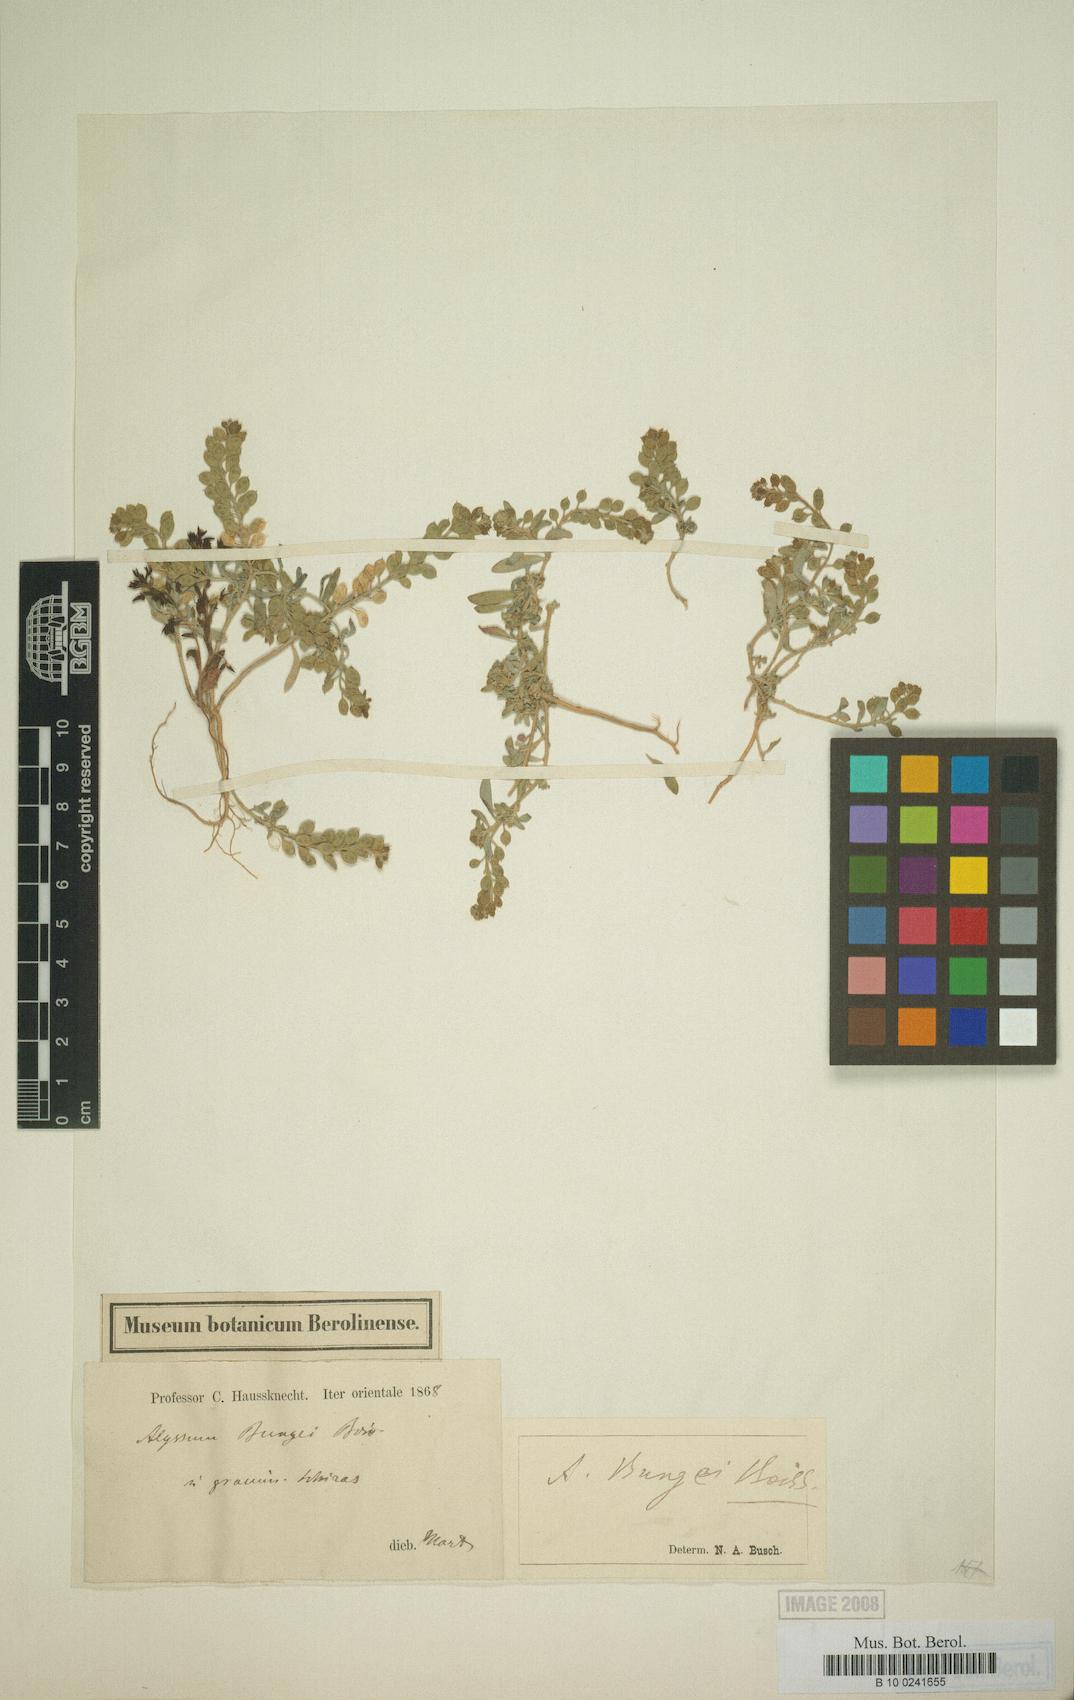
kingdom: Plantae
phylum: Tracheophyta
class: Magnoliopsida
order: Brassicales
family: Brassicaceae
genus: Meniocus
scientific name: Meniocus heterotrichus
